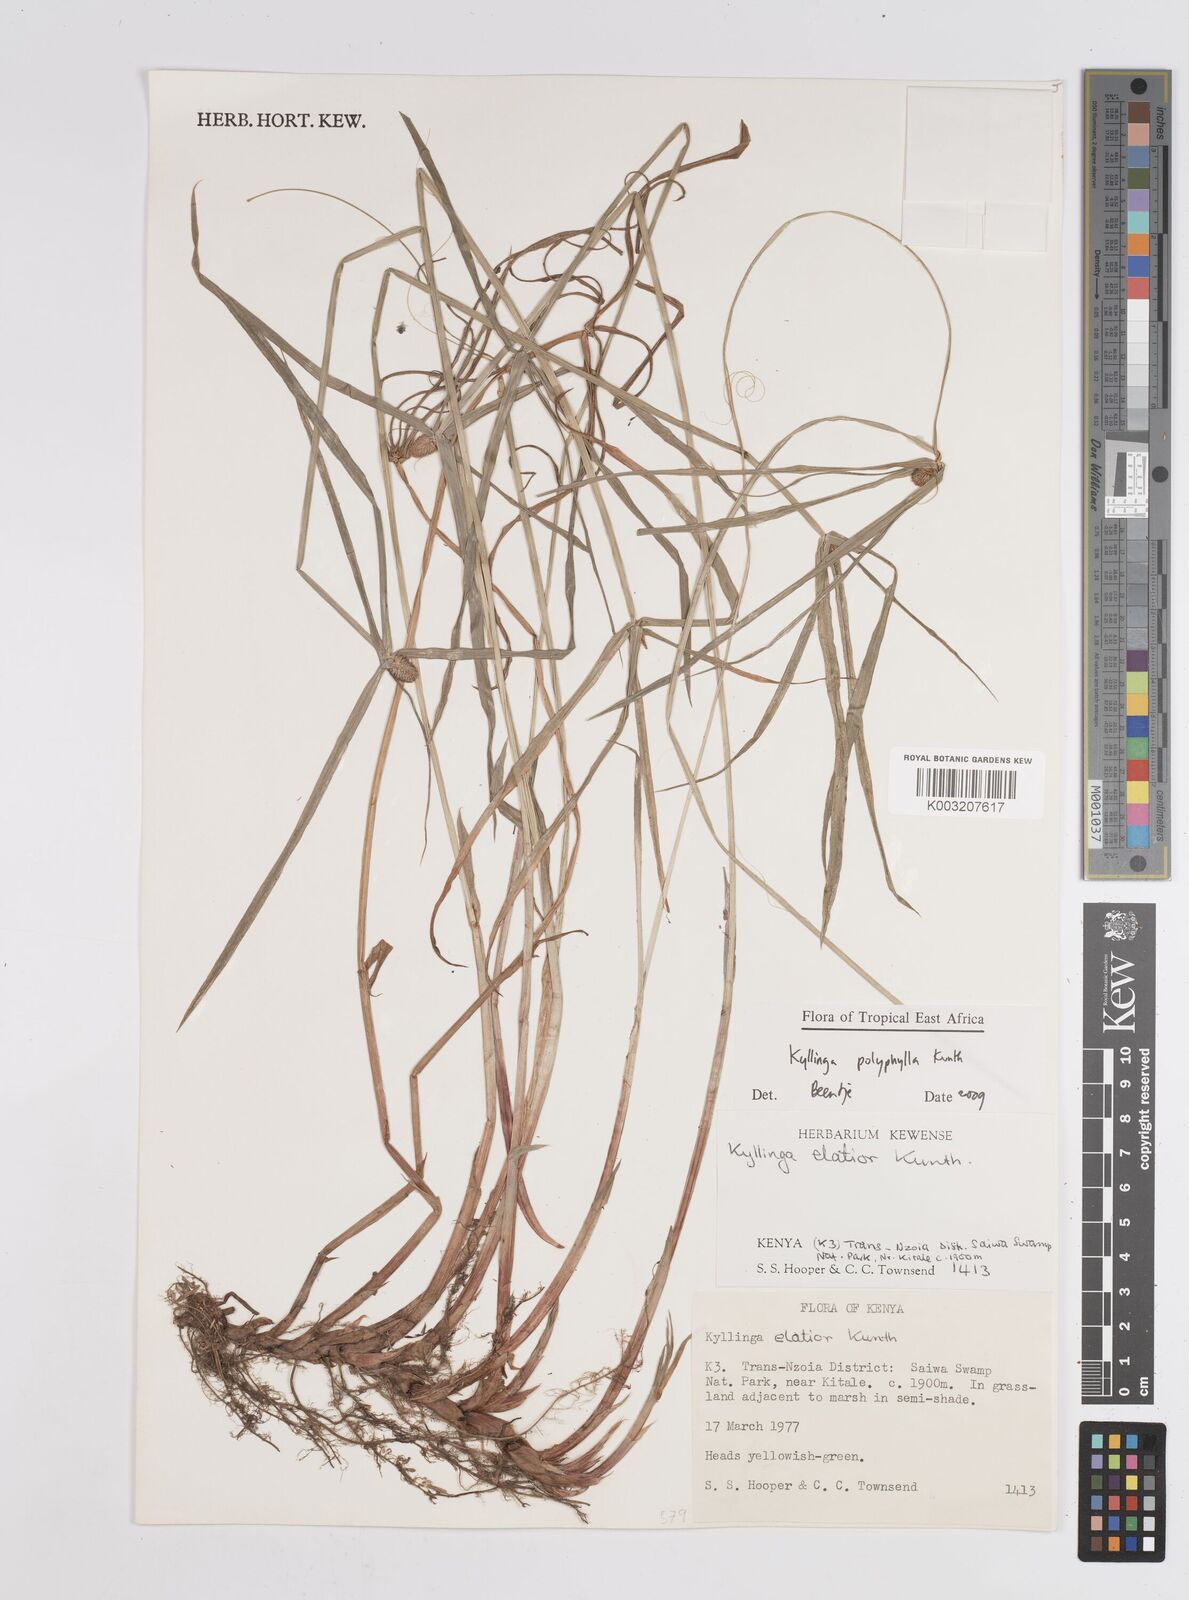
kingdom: Plantae
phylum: Tracheophyta
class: Liliopsida
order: Poales
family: Cyperaceae
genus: Cyperus
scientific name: Cyperus
